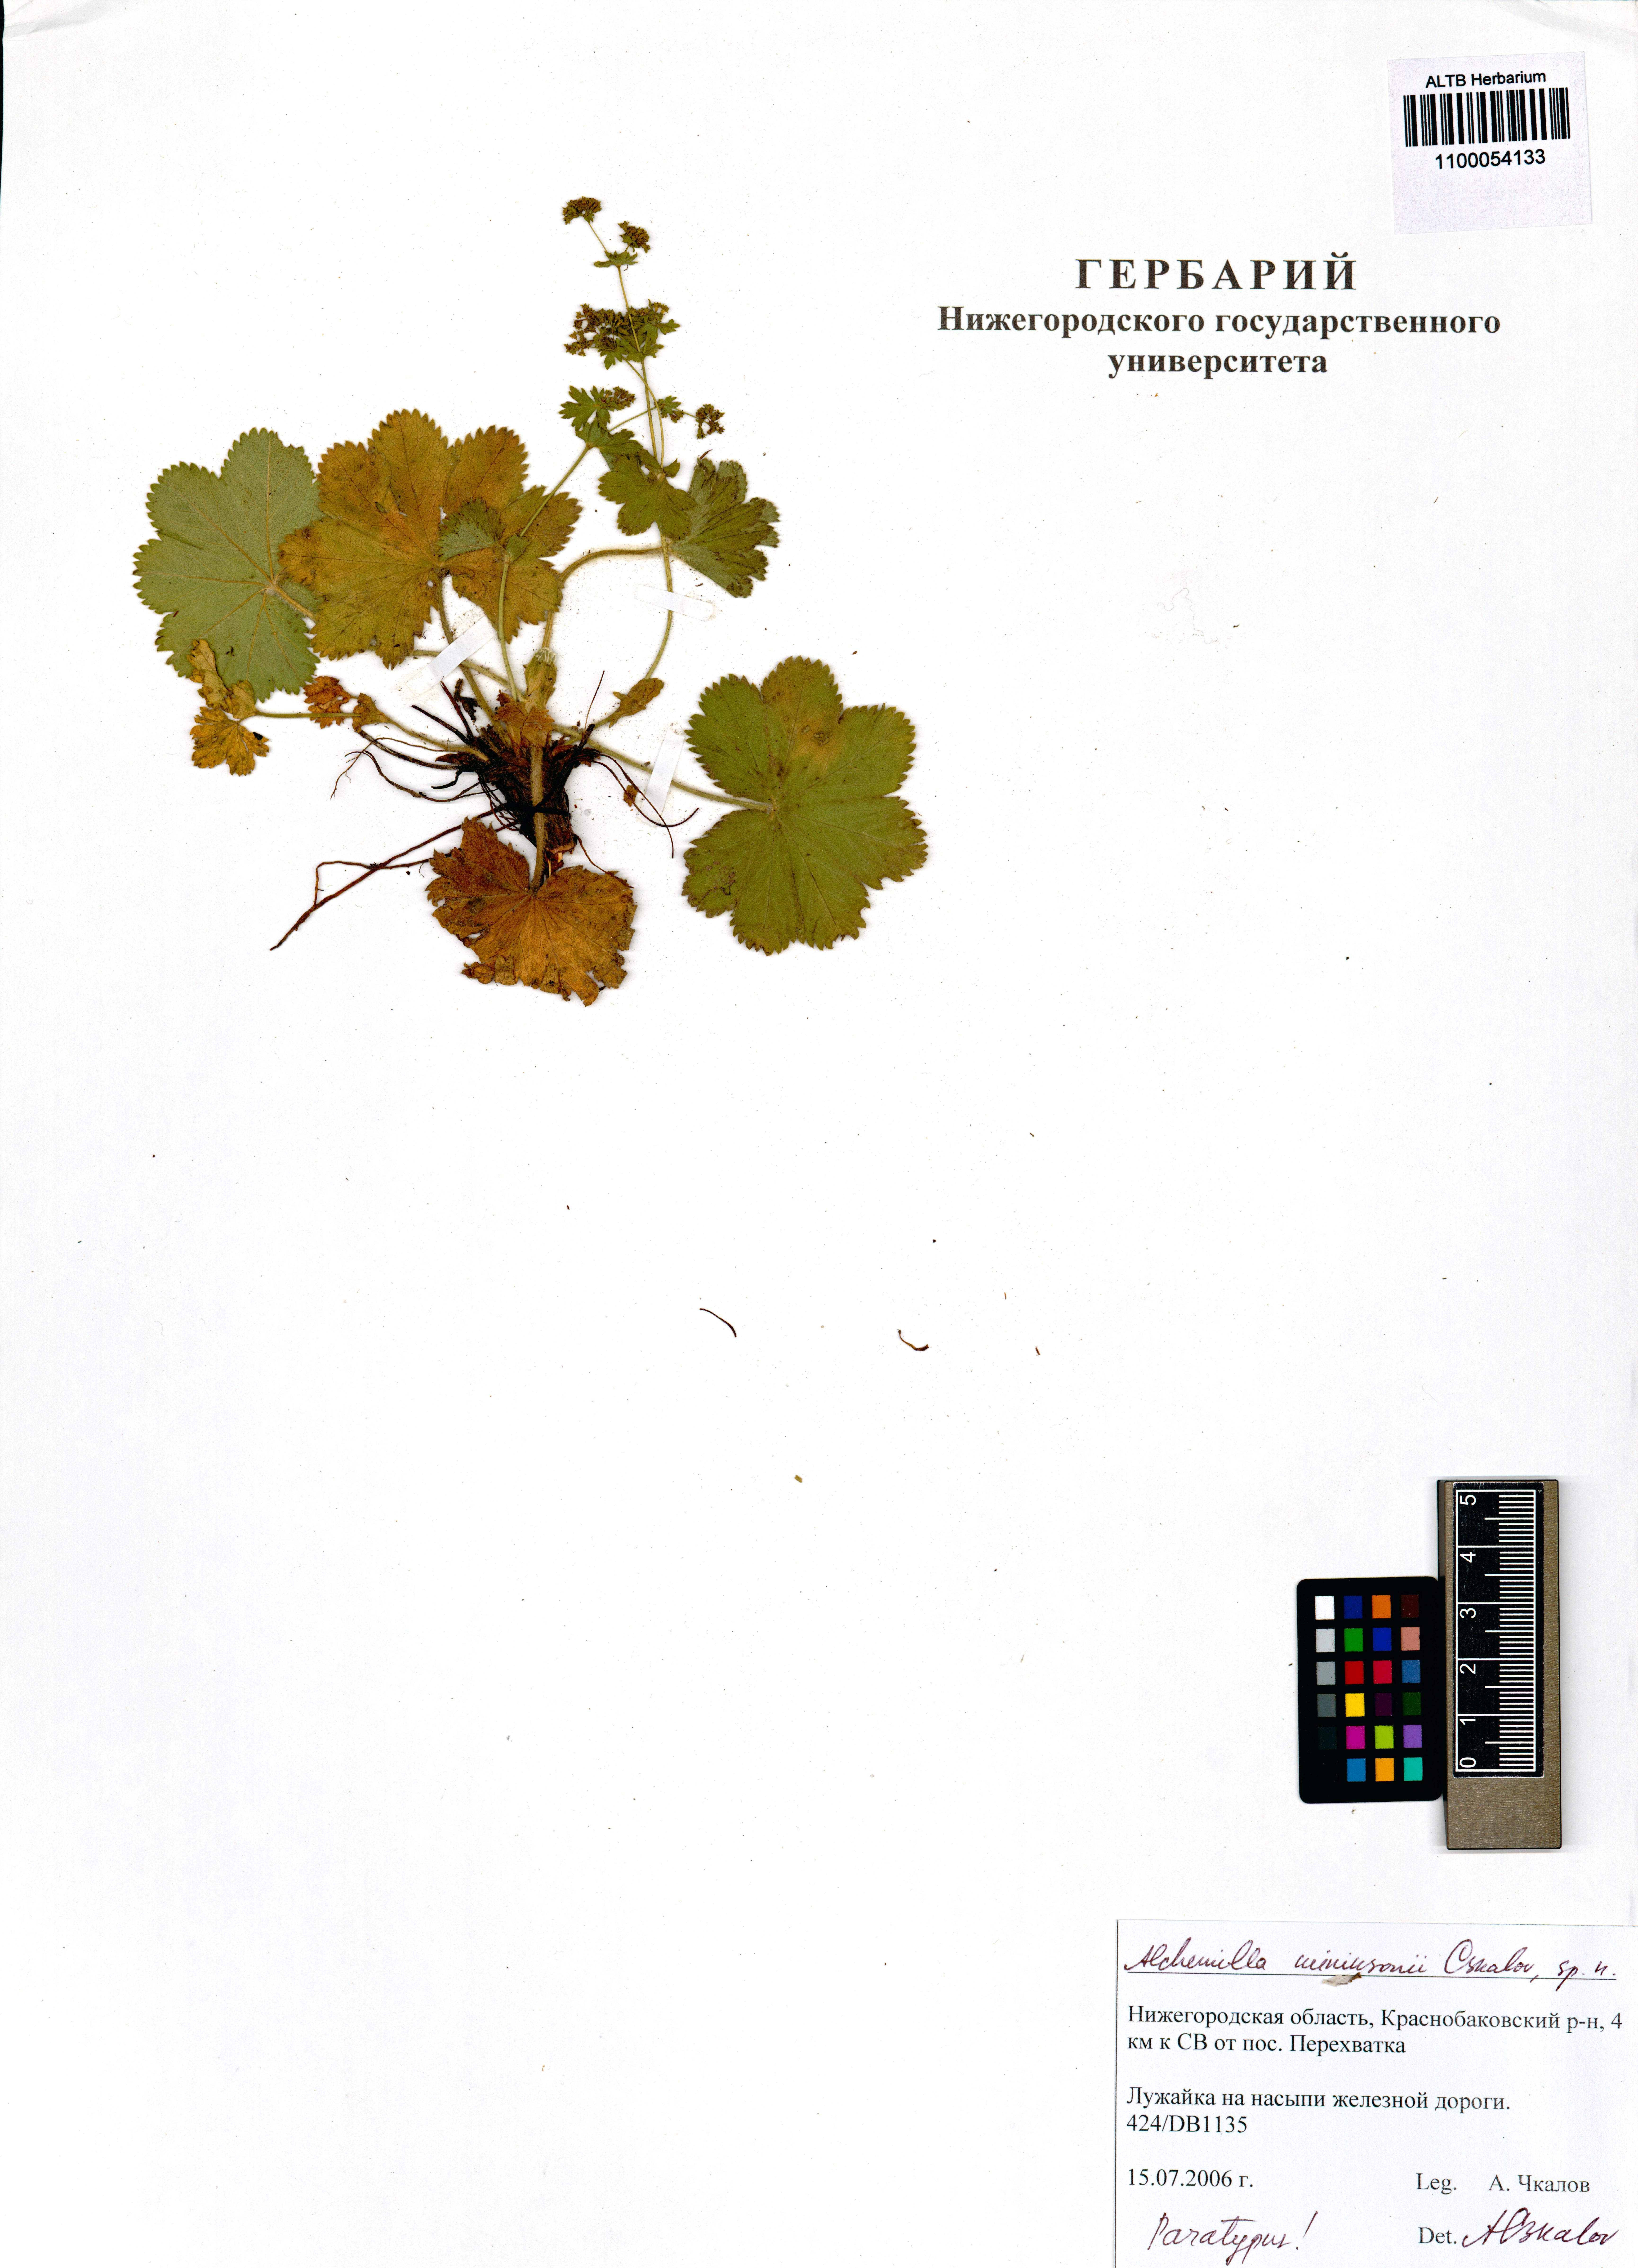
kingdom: Plantae
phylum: Tracheophyta
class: Magnoliopsida
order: Rosales
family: Rosaceae
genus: Alchemilla
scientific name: Alchemilla mininzonii
